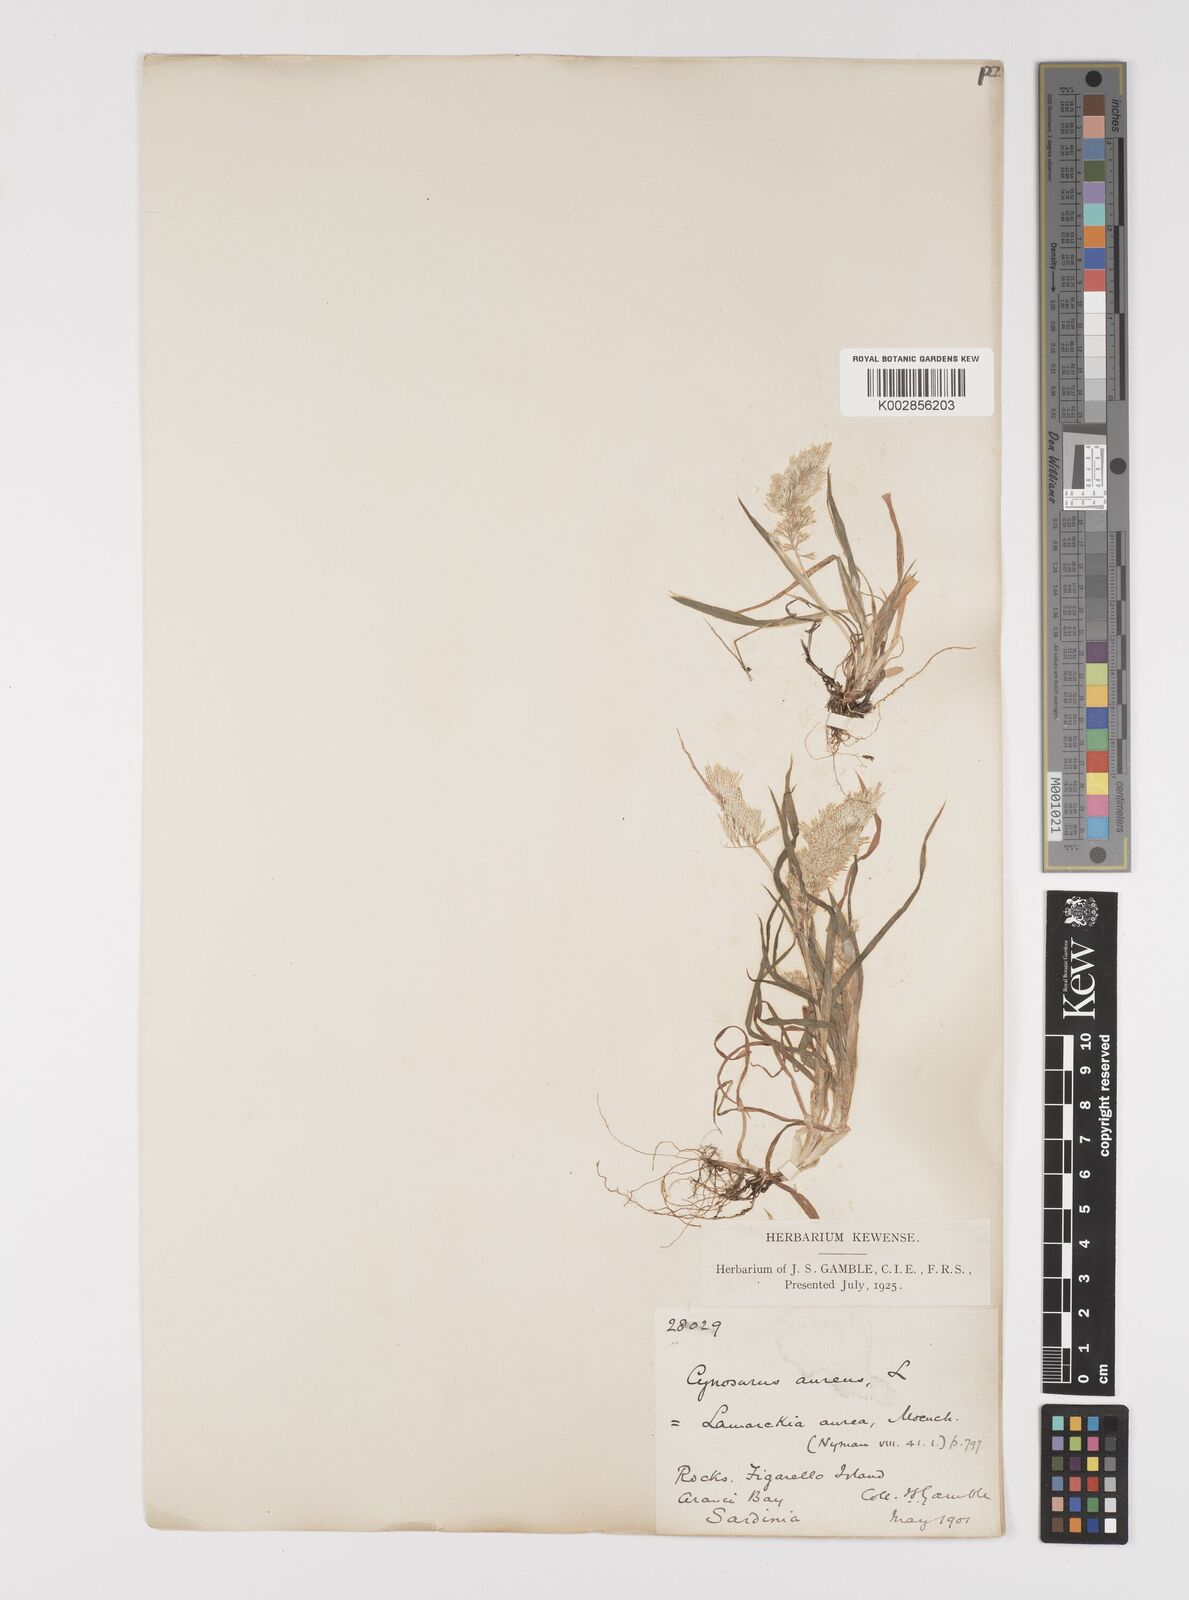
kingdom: Plantae
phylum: Tracheophyta
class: Liliopsida
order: Poales
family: Poaceae
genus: Lamarckia
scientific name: Lamarckia aurea
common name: Golden dog's-tail
